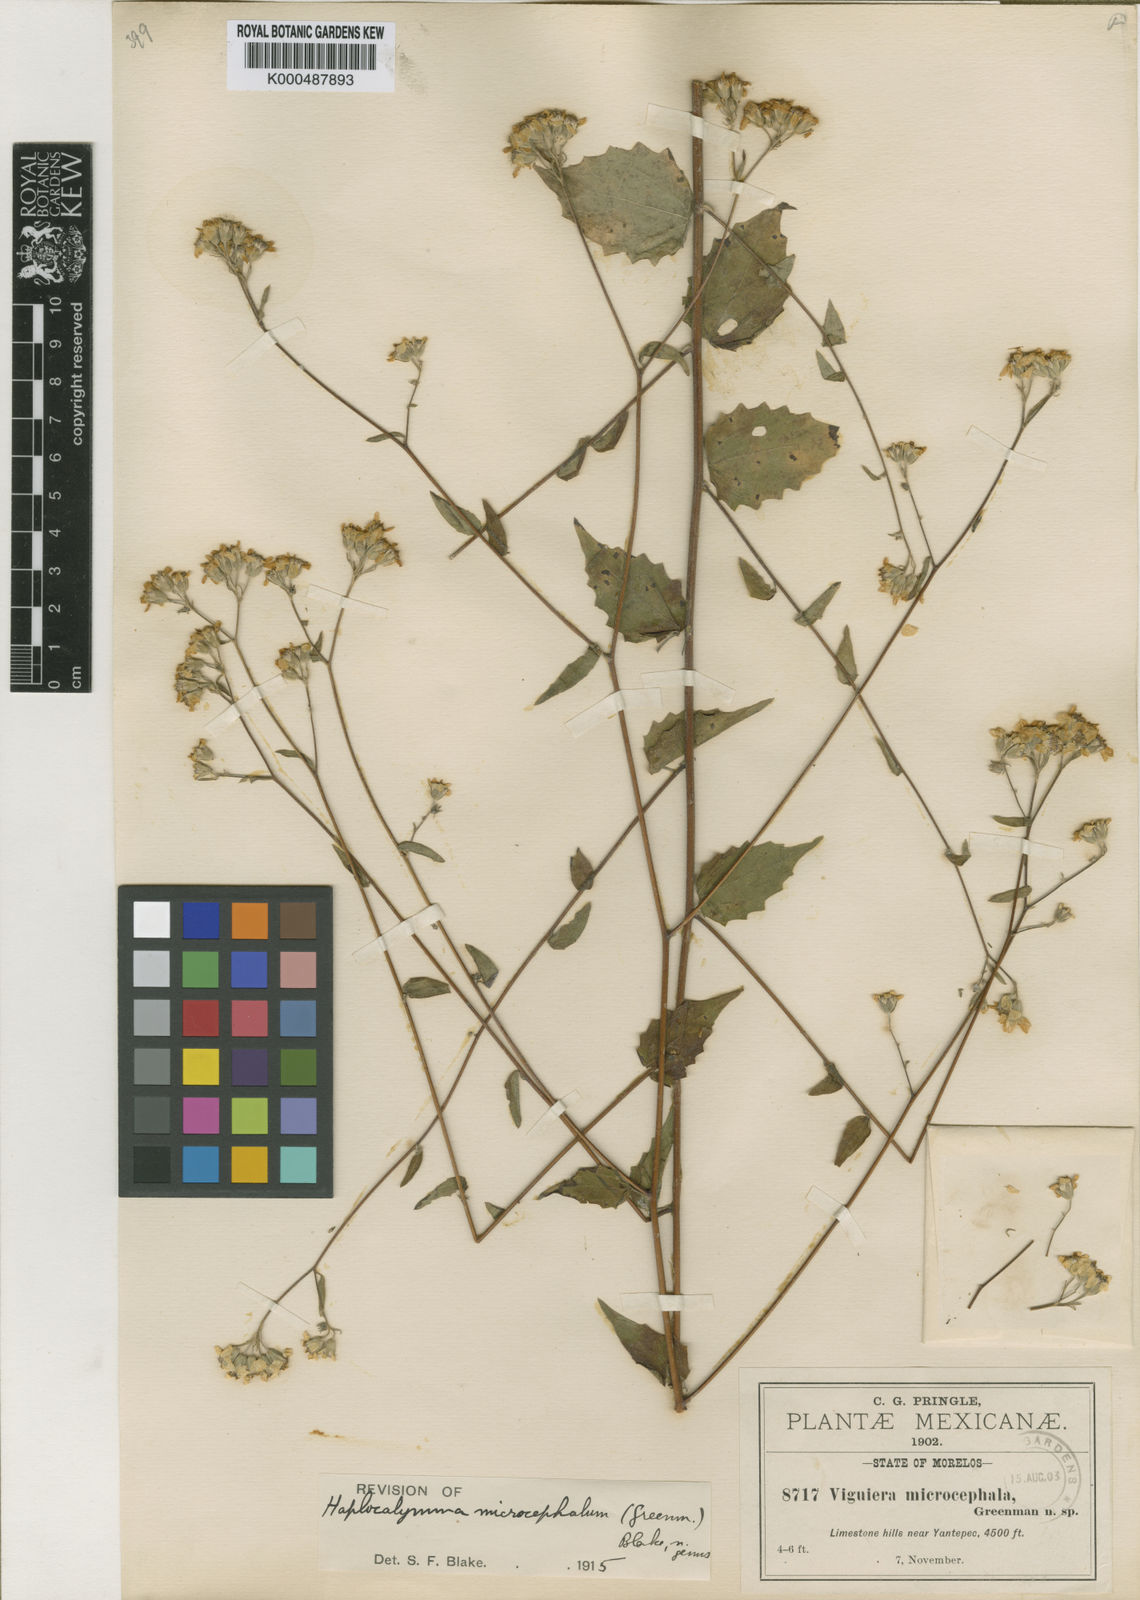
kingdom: Plantae
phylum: Tracheophyta
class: Magnoliopsida
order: Asterales
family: Asteraceae
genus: Hymenostephium
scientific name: Hymenostephium uniseriatum
